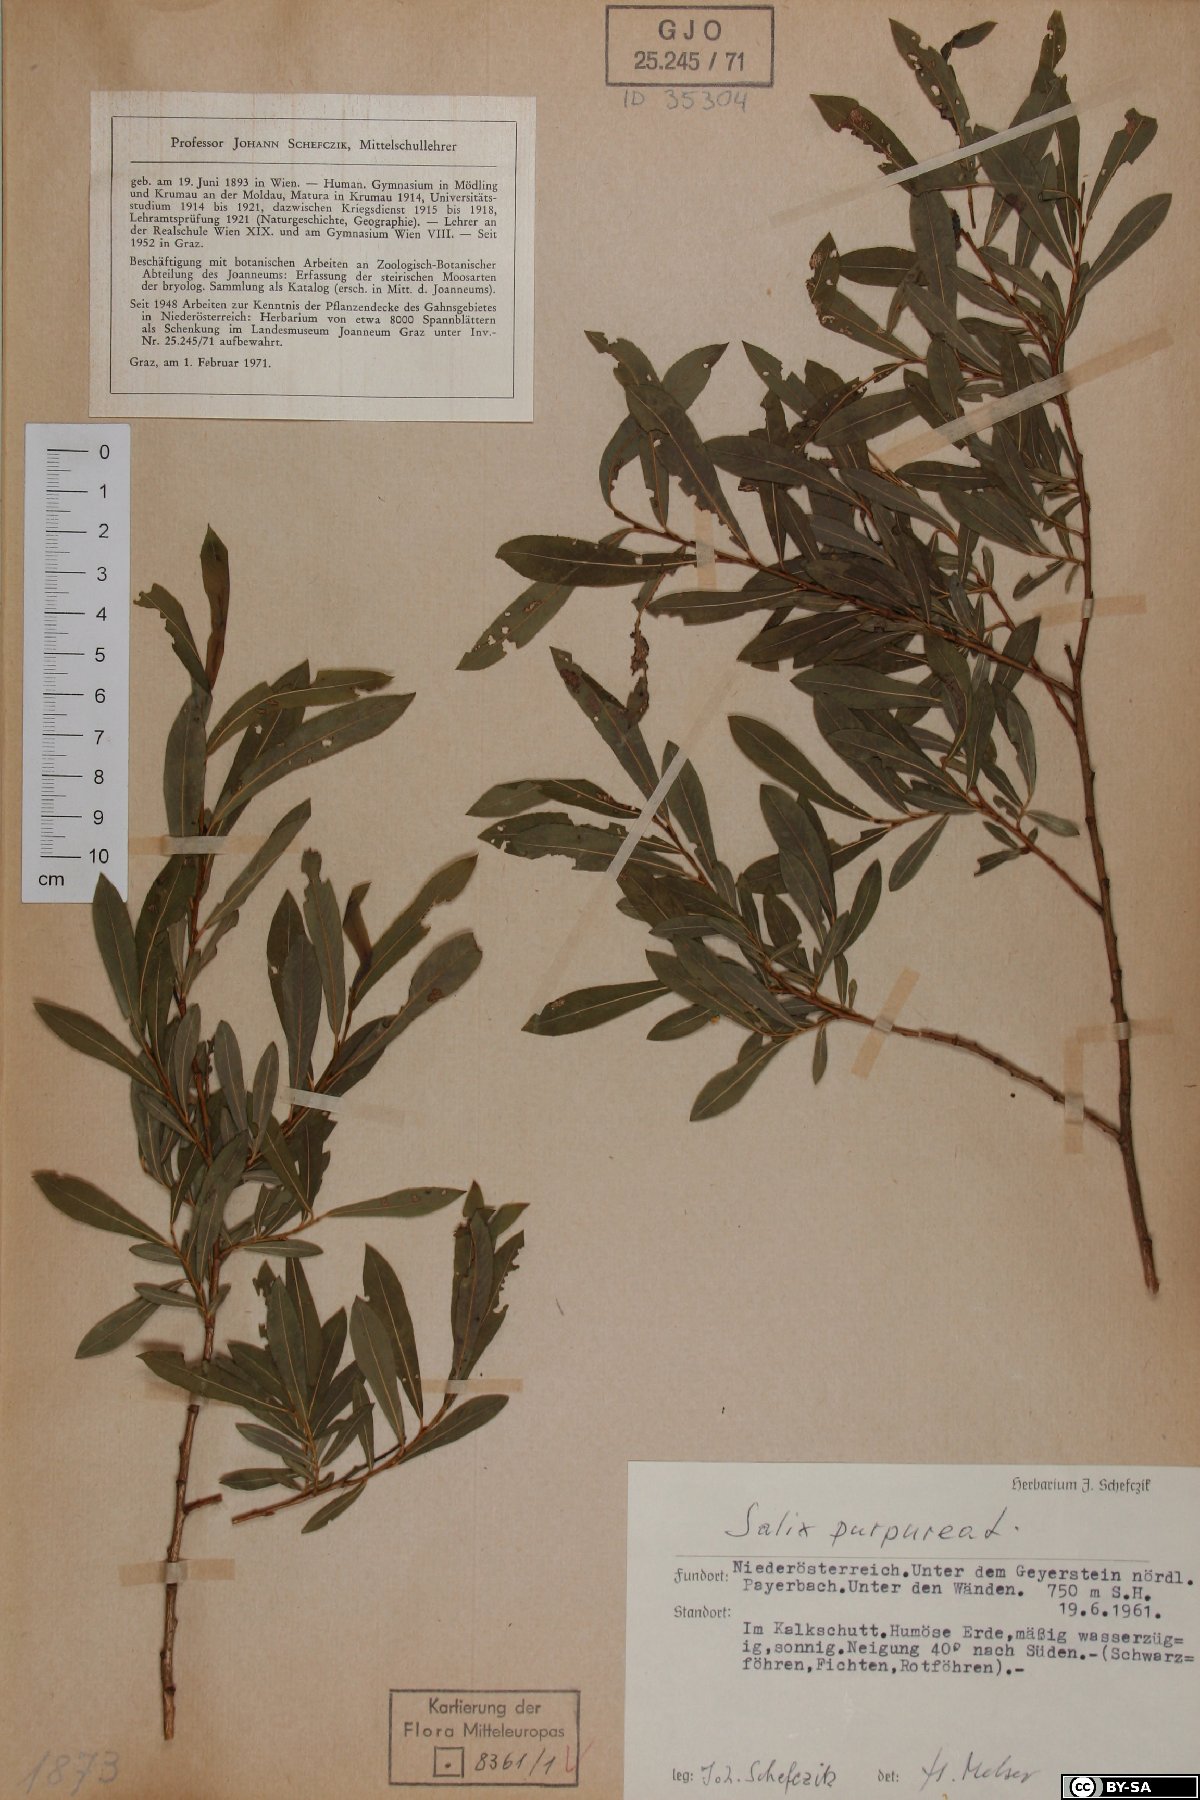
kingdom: Plantae
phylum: Tracheophyta
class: Magnoliopsida
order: Malpighiales
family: Salicaceae
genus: Salix
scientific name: Salix purpurea
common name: Purple willow
